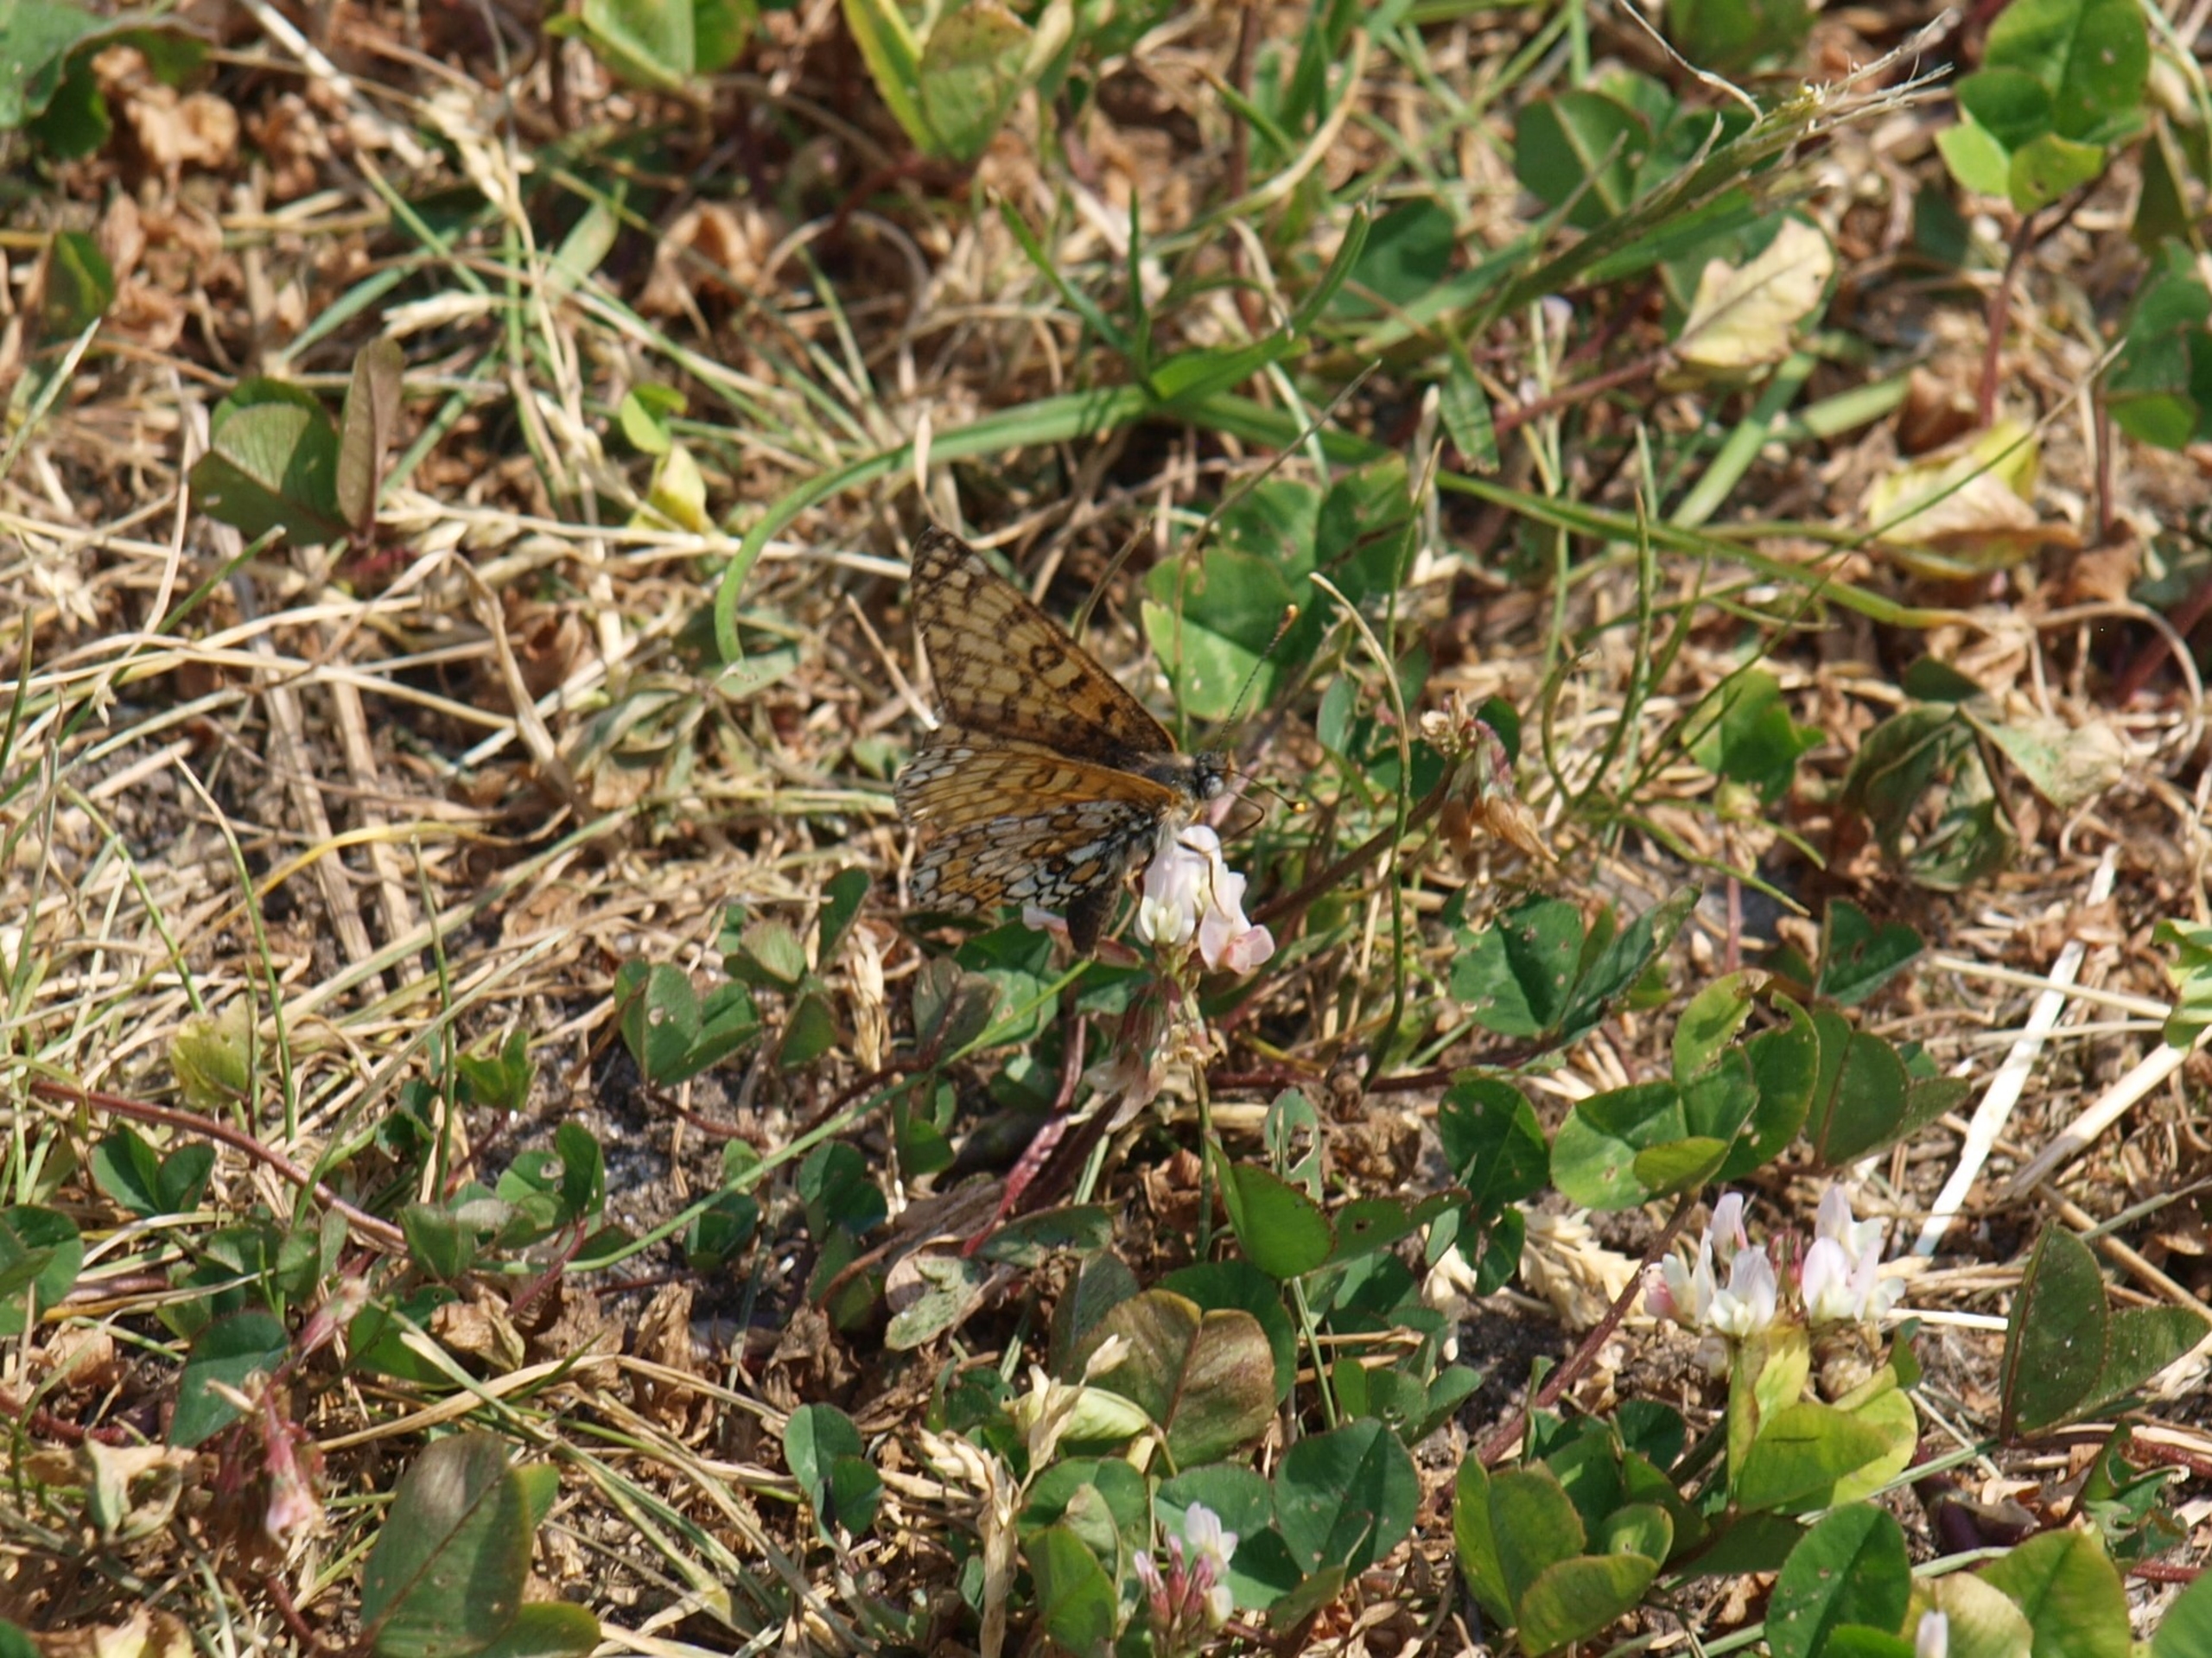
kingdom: Animalia
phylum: Arthropoda
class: Insecta
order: Lepidoptera
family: Nymphalidae
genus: Melitaea
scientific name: Melitaea cinxia
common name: Okkergul pletvinge
